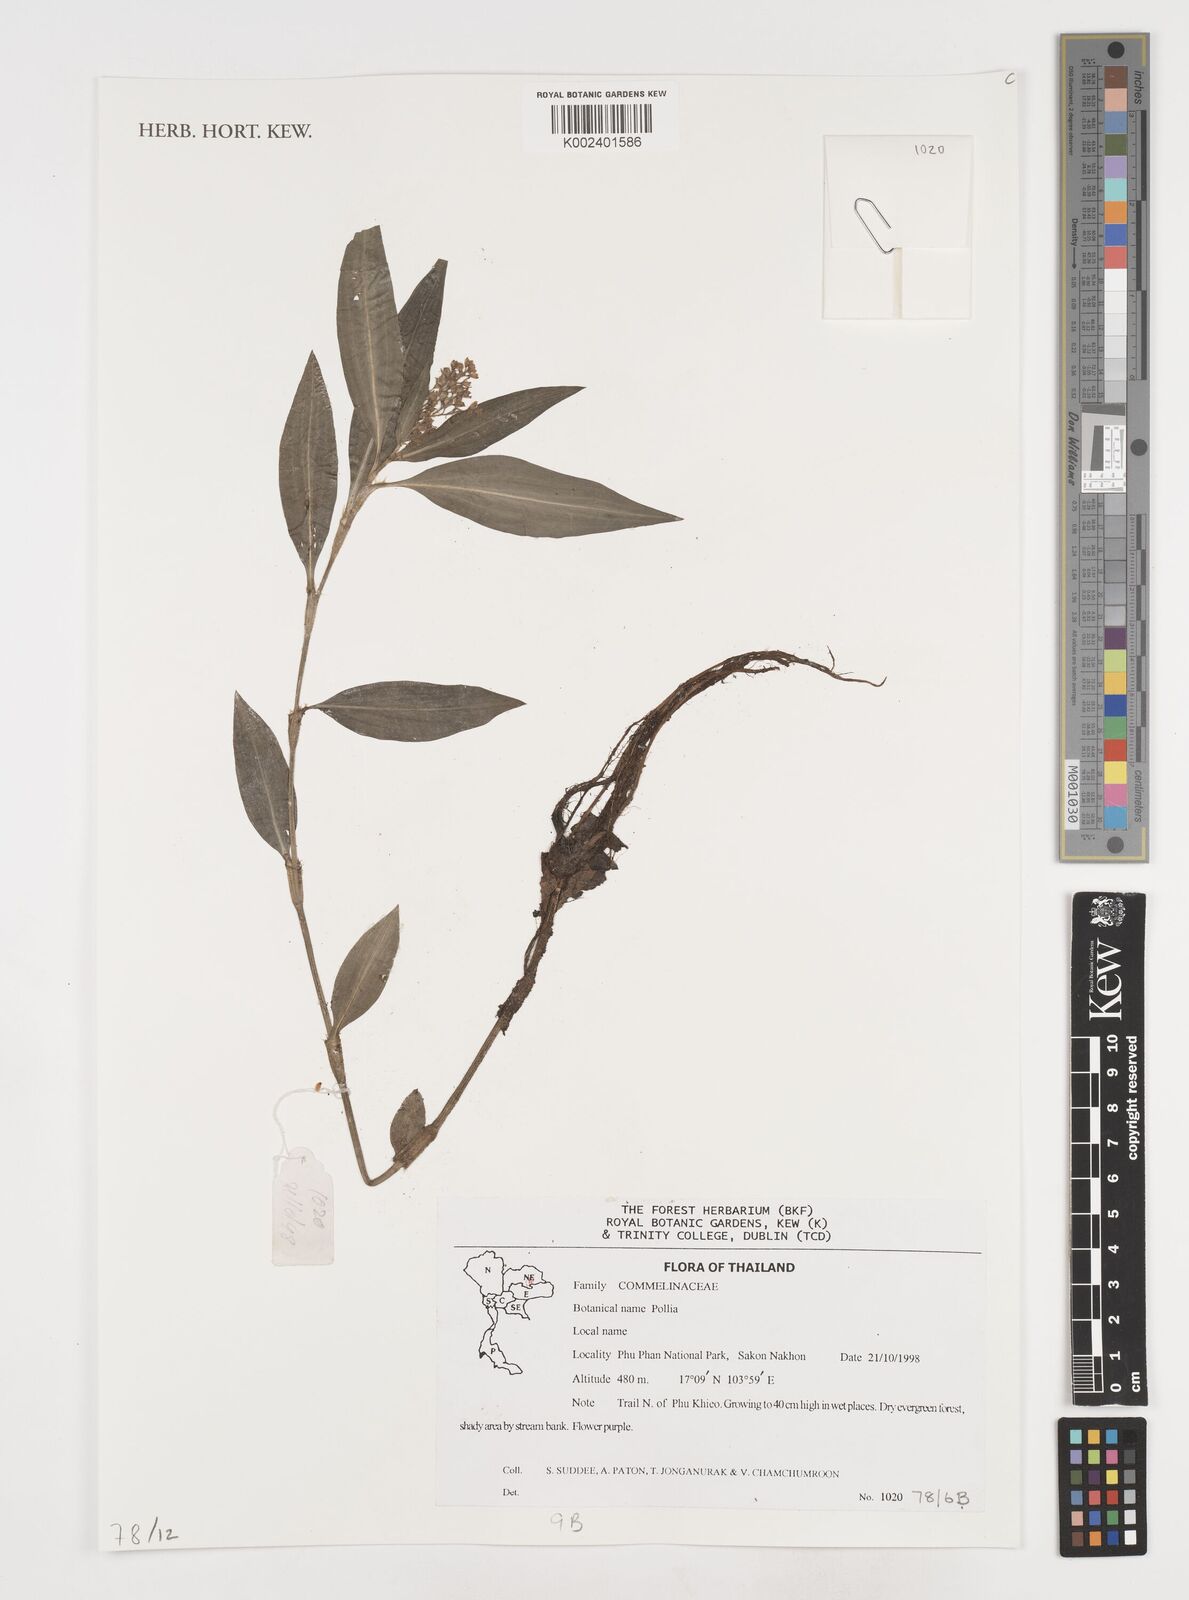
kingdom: Plantae
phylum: Tracheophyta
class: Liliopsida
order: Commelinales
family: Commelinaceae
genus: Pollia
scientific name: Pollia
